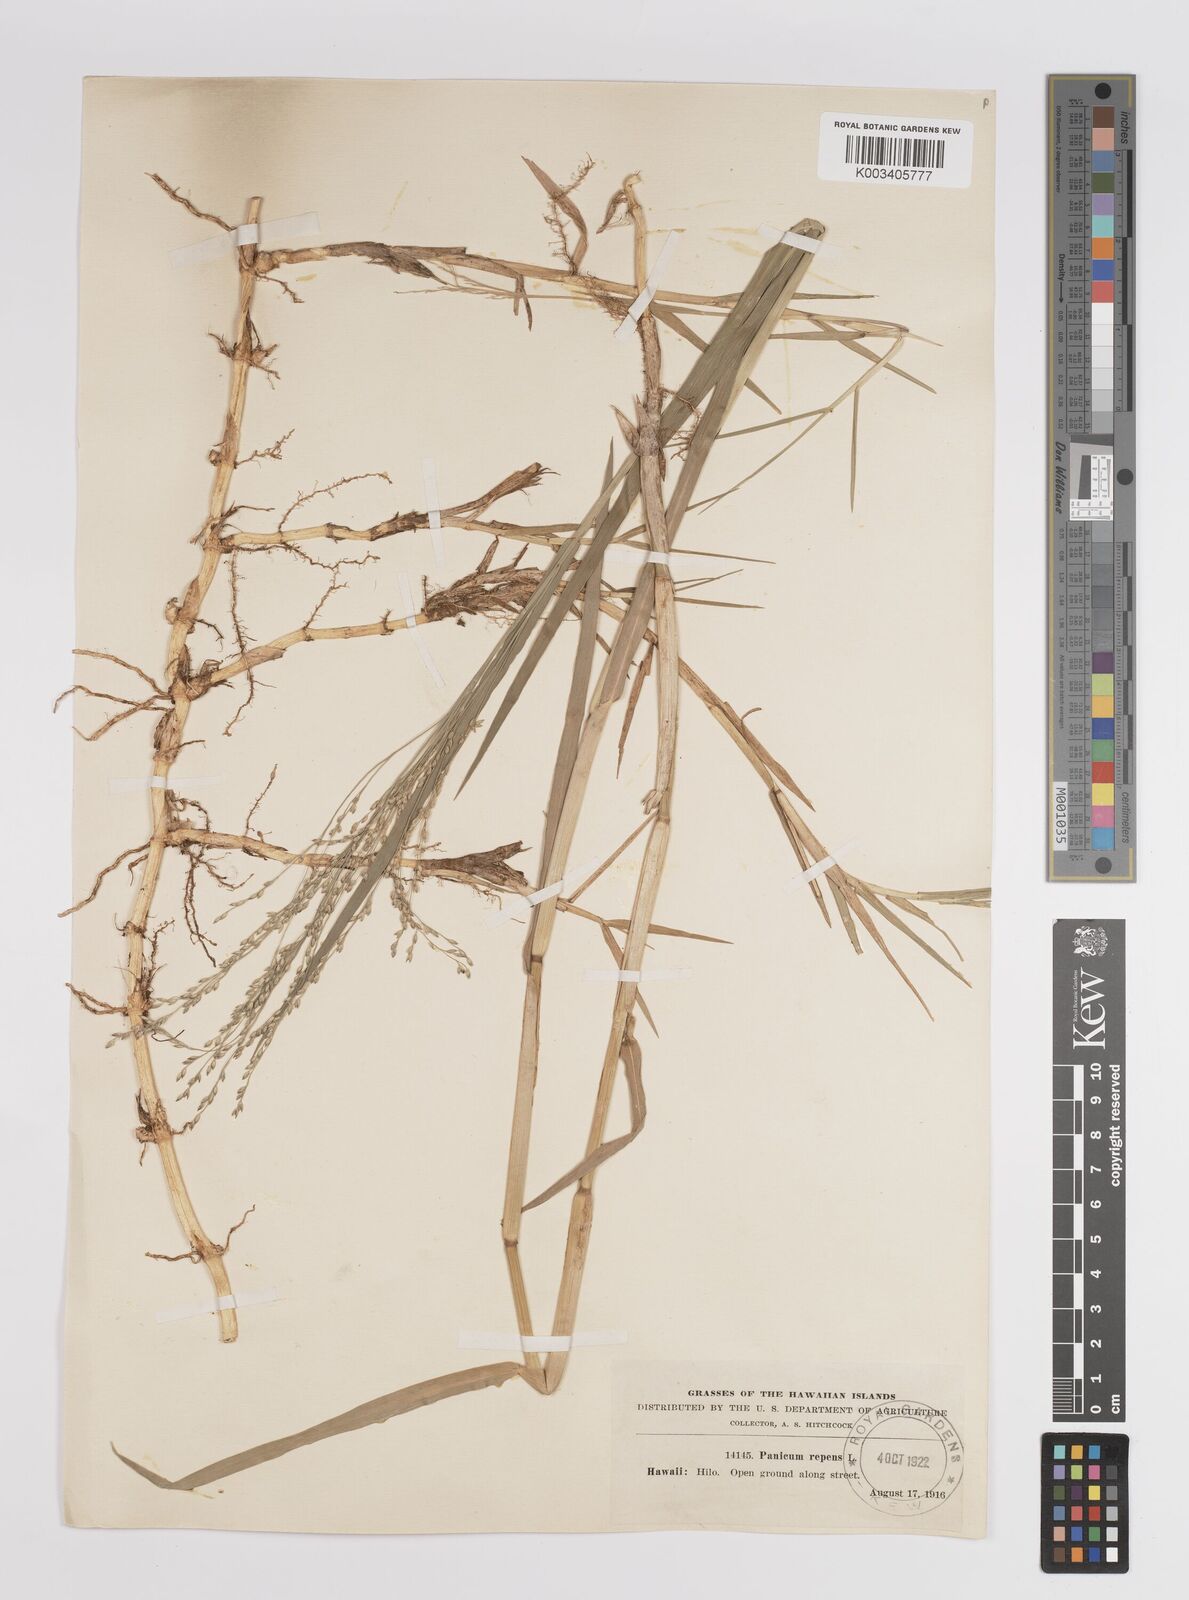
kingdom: Plantae
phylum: Tracheophyta
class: Liliopsida
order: Poales
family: Poaceae
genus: Panicum
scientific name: Panicum repens
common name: Torpedo grass
